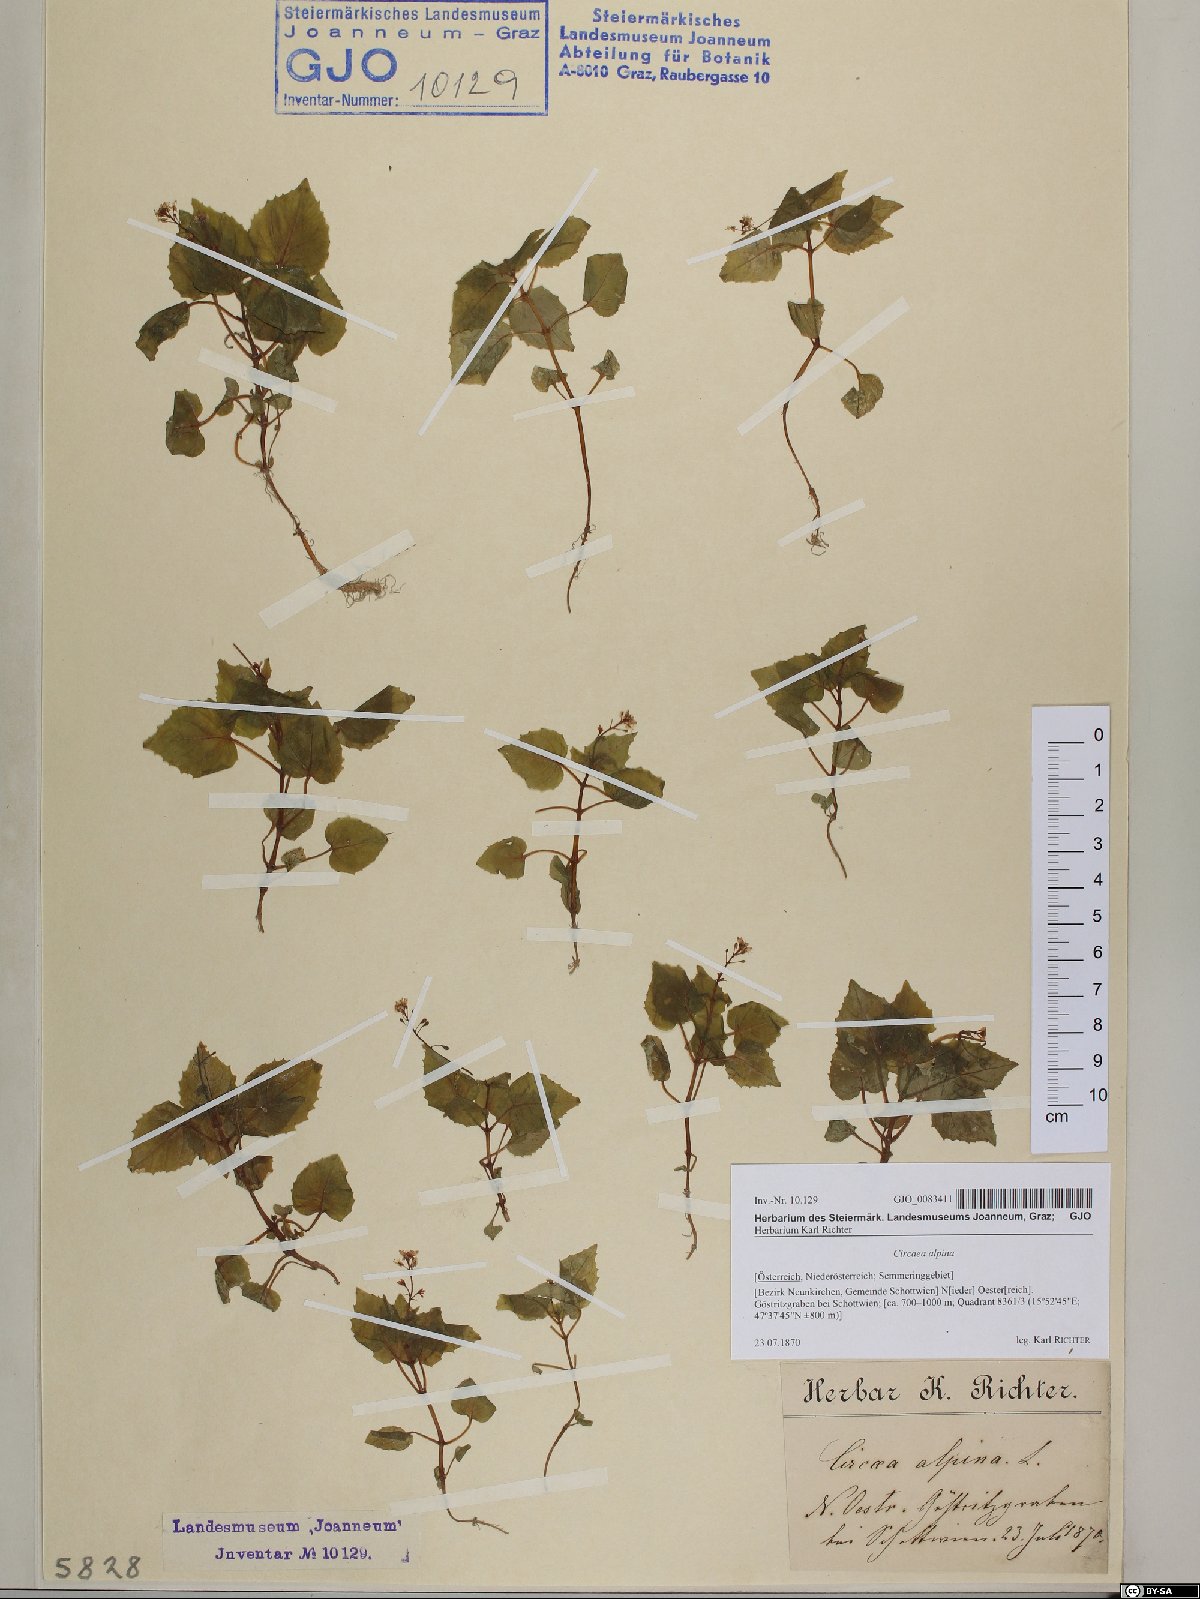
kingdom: Plantae
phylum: Tracheophyta
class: Magnoliopsida
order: Myrtales
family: Onagraceae
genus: Circaea
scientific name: Circaea alpina
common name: Alpine enchanter's-nightshade
